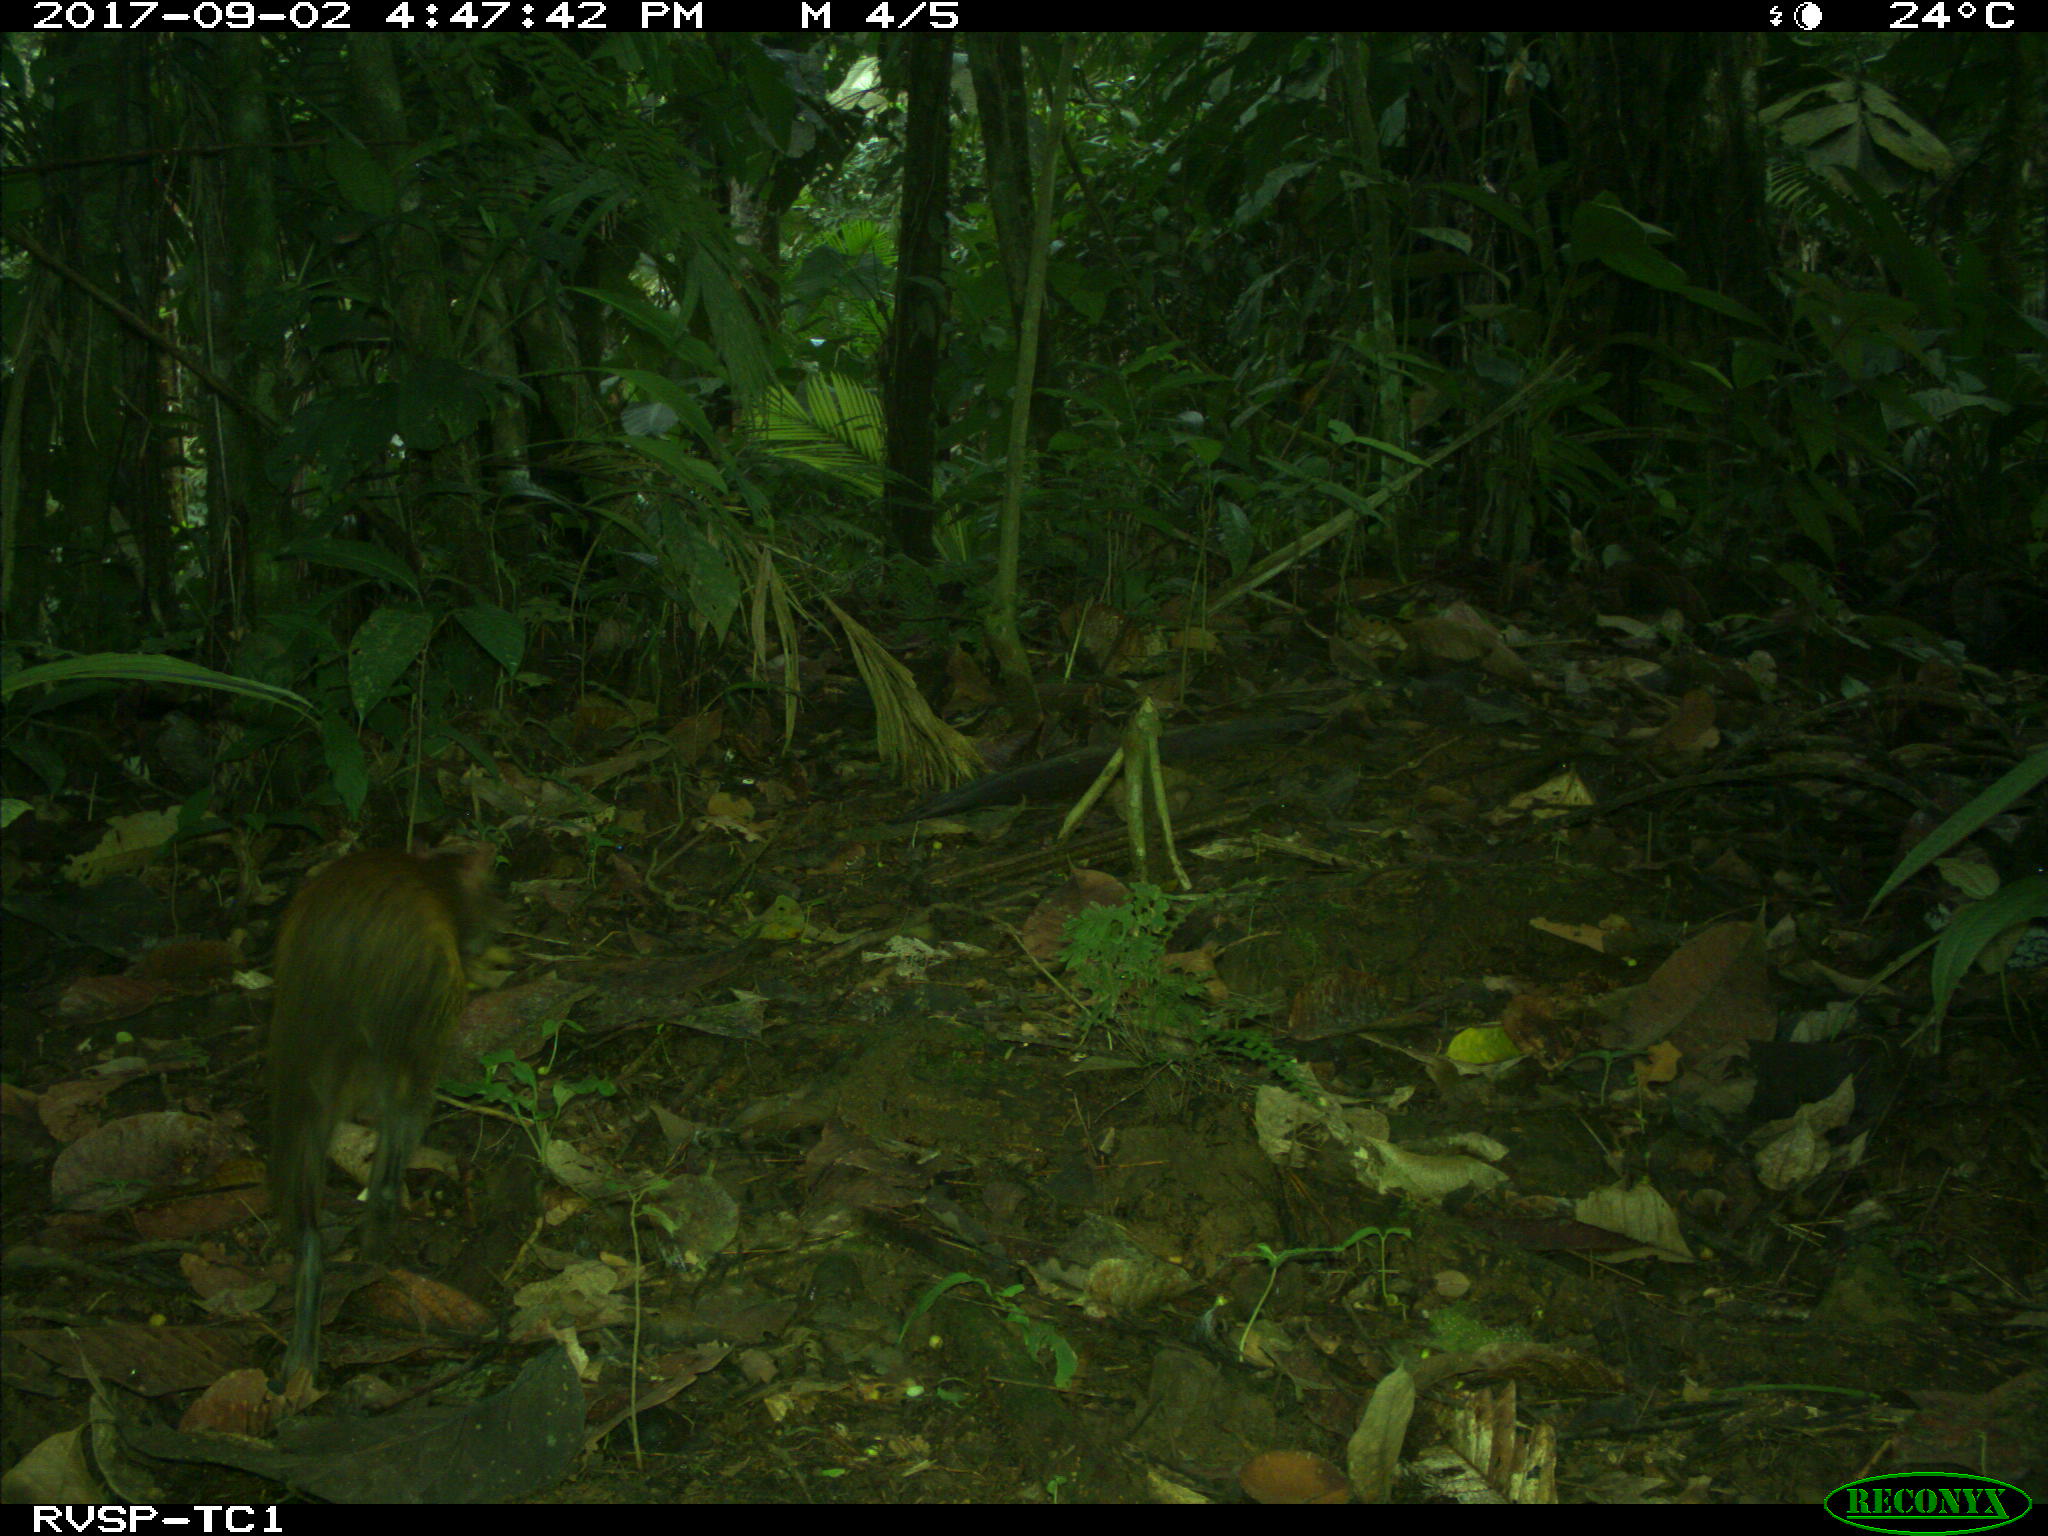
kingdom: Animalia
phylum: Chordata
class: Mammalia
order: Rodentia
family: Dasyproctidae
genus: Dasyprocta
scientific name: Dasyprocta punctata
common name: Central american agouti
